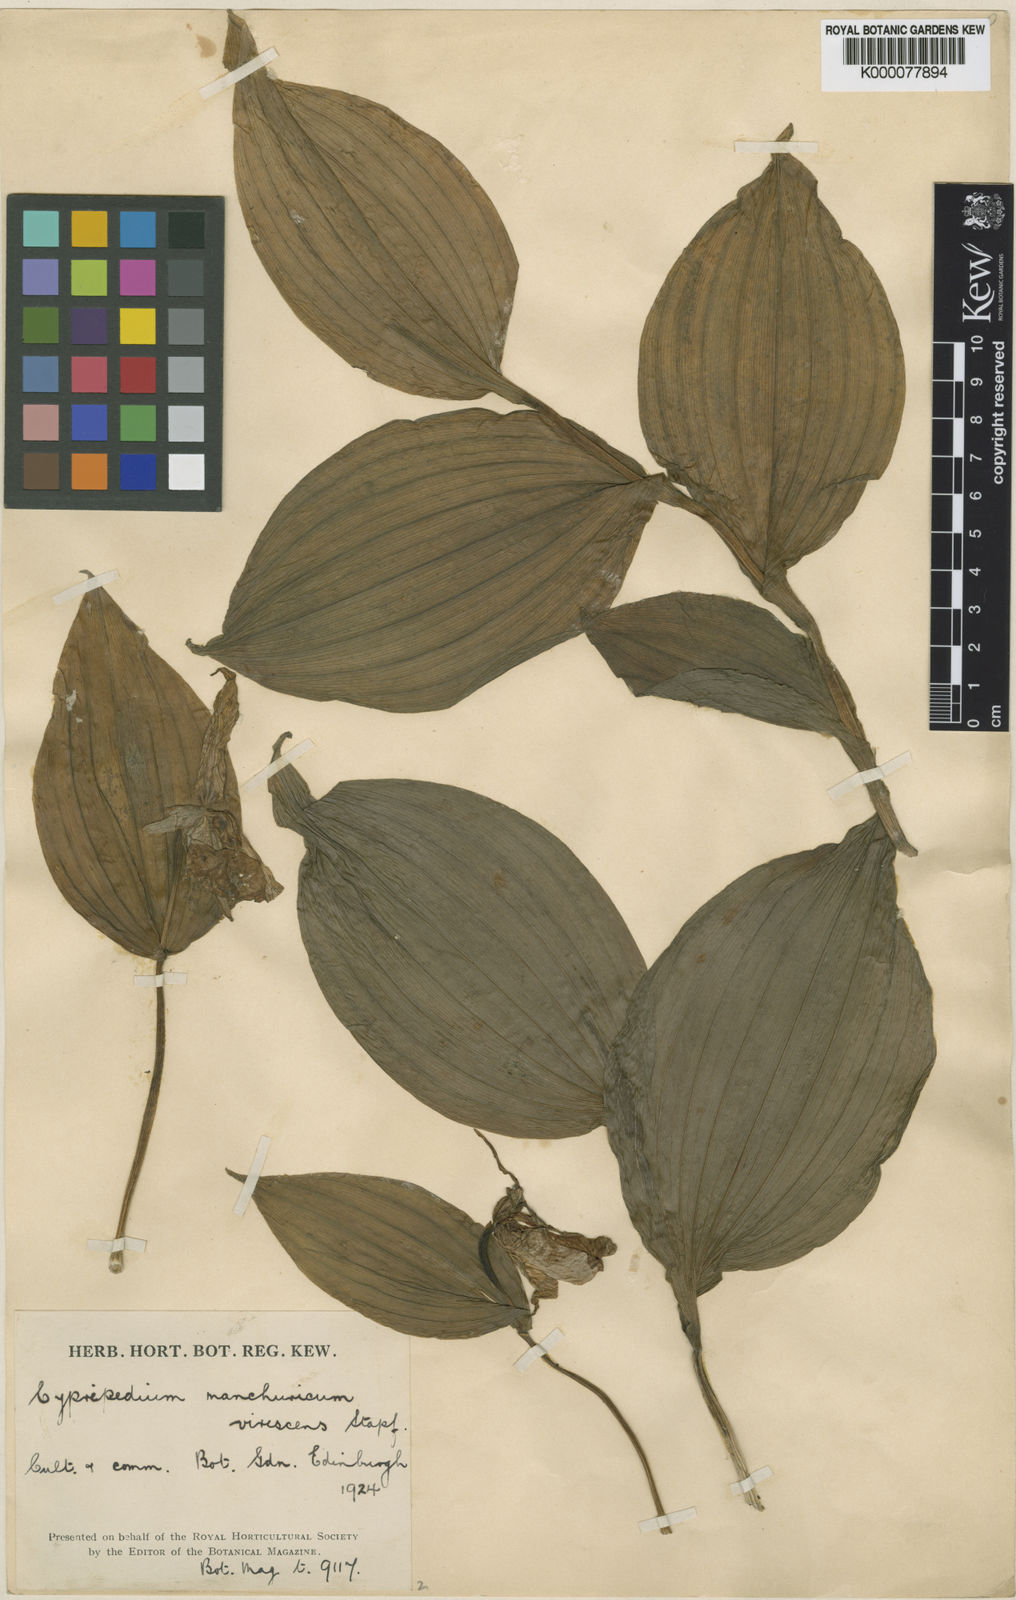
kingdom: Plantae
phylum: Tracheophyta
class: Liliopsida
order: Asparagales
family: Orchidaceae
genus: Cypripedium
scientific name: Cypripedium ventricosum
